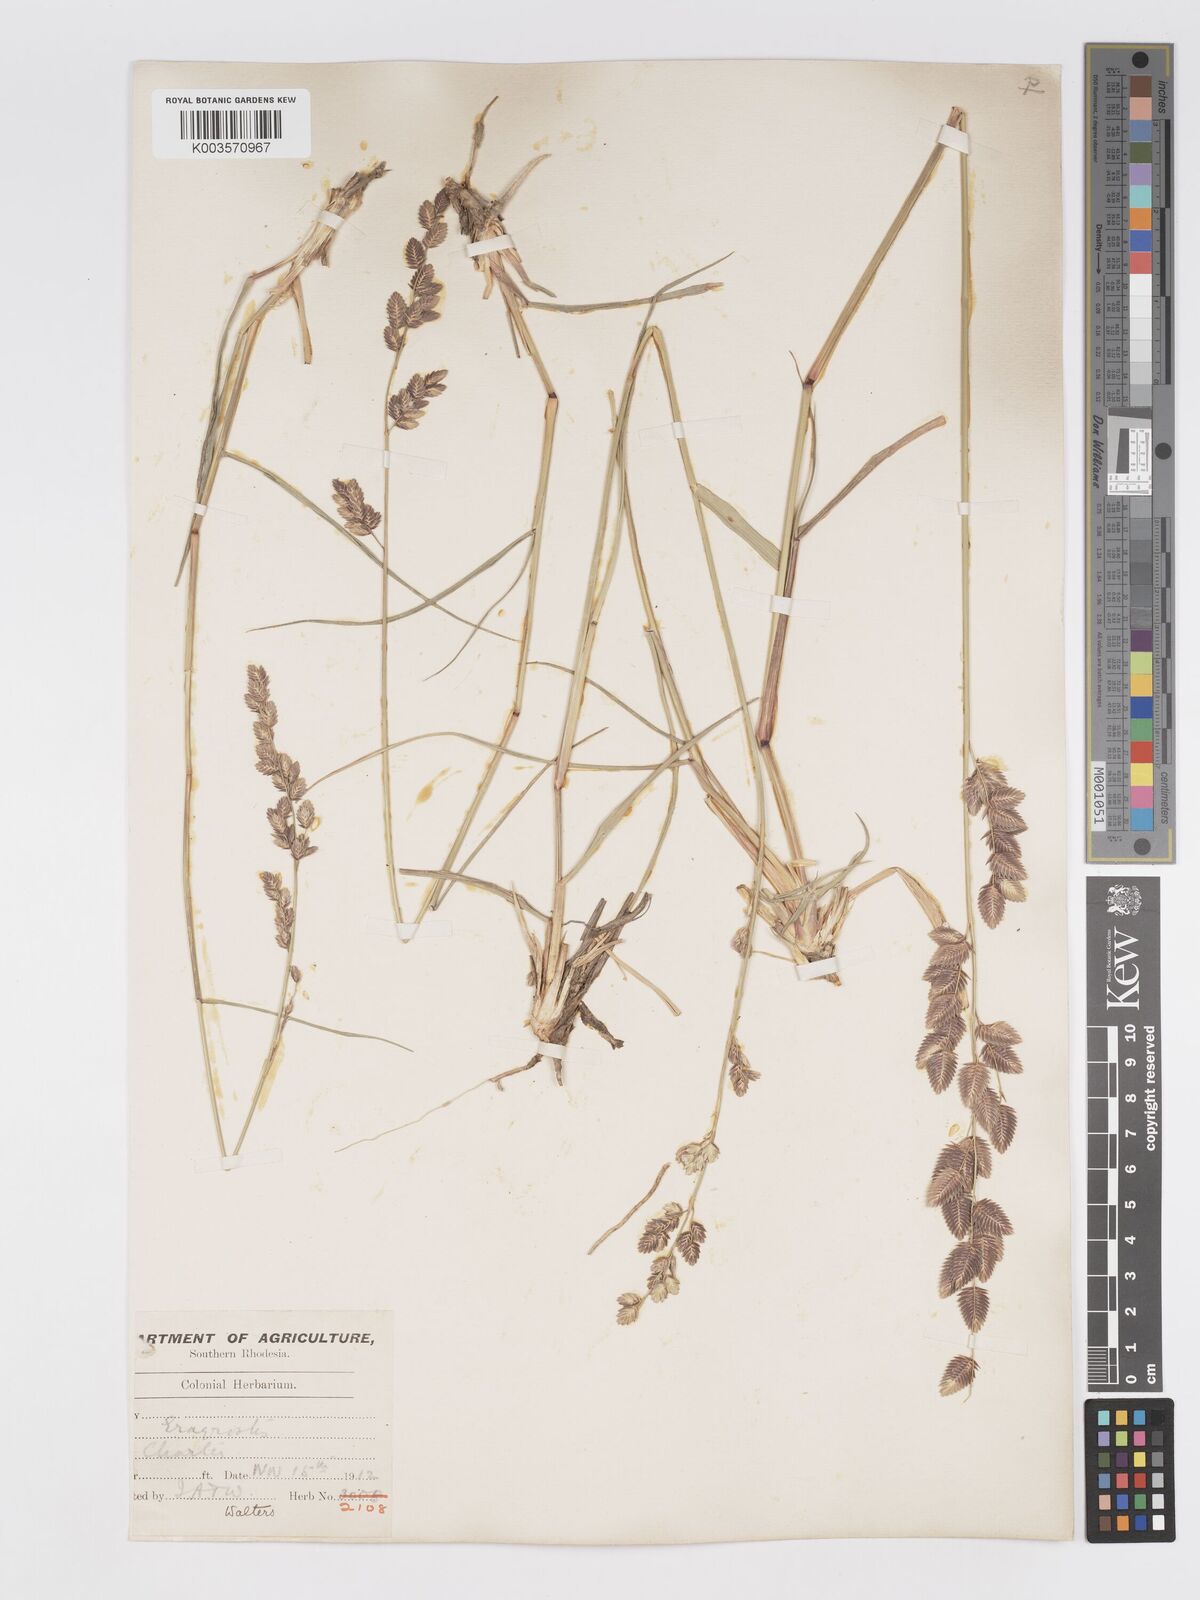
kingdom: Plantae
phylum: Tracheophyta
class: Liliopsida
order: Poales
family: Poaceae
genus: Eragrostis
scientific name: Eragrostis superba
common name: Wilman lovegrass
